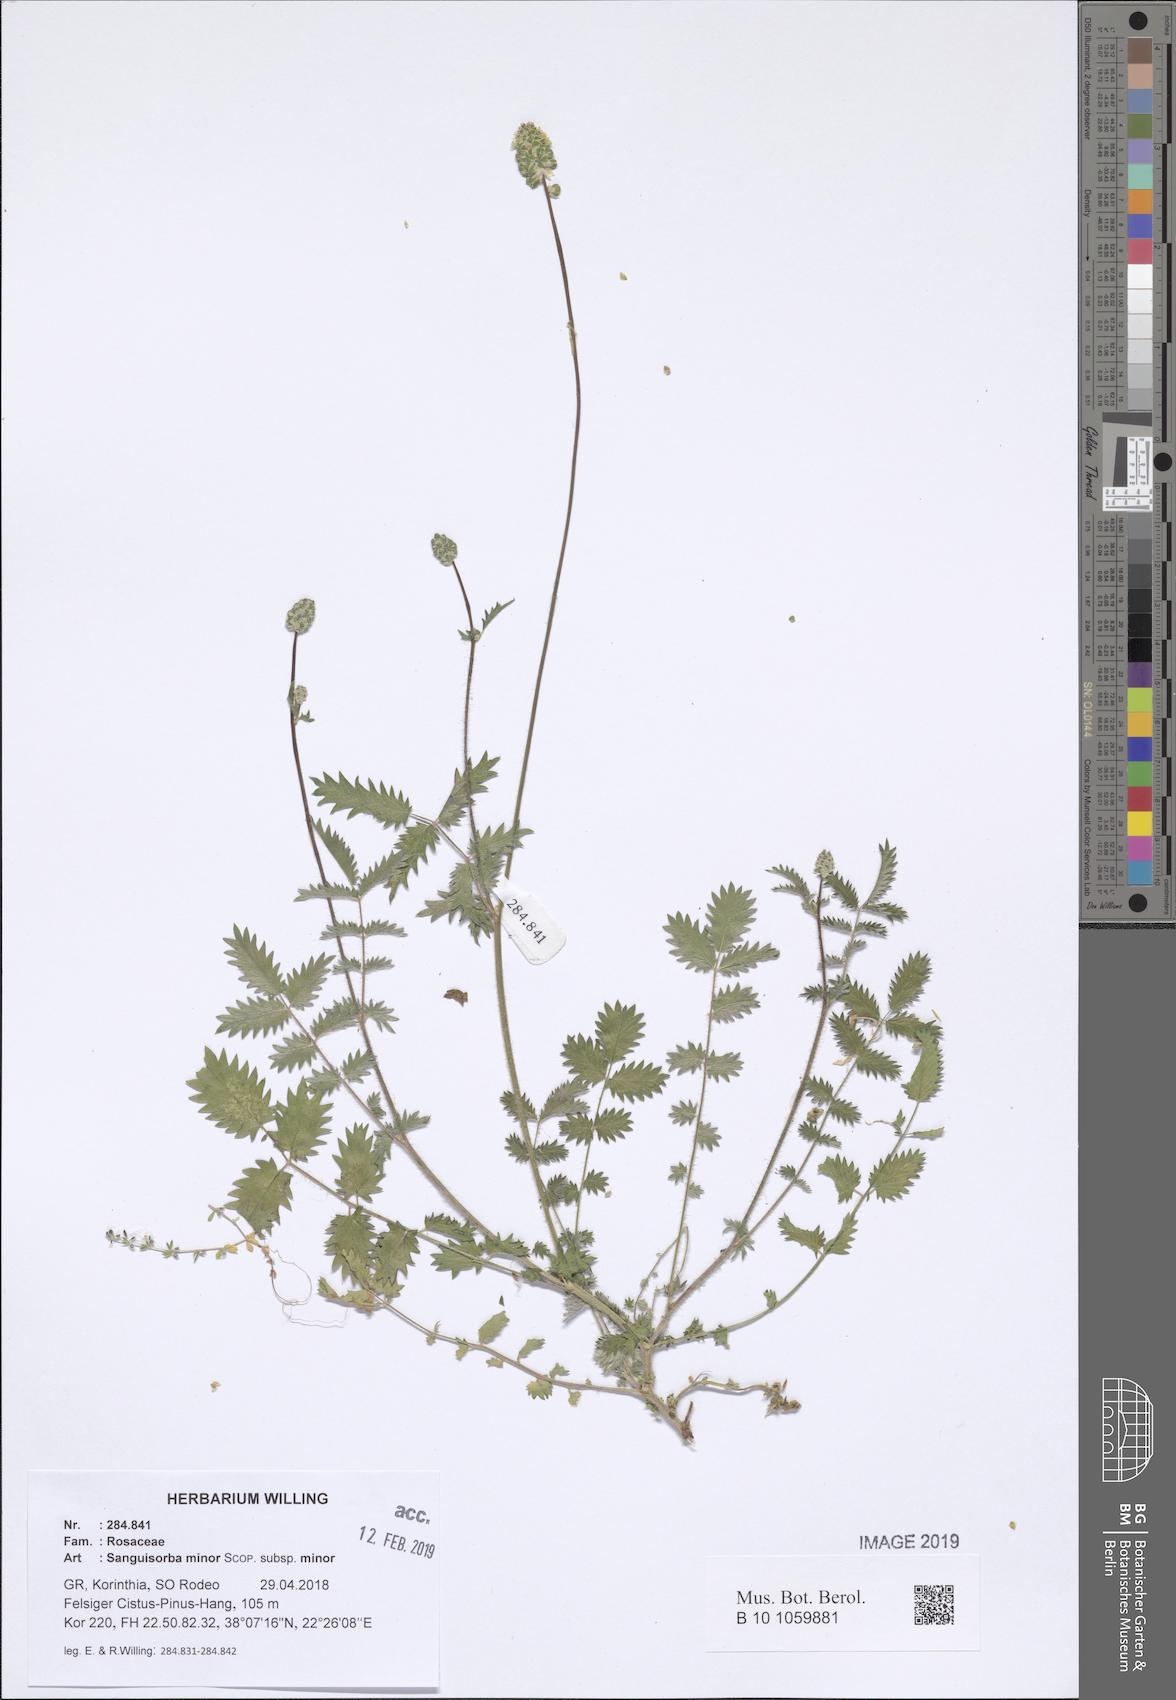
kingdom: Plantae
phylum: Tracheophyta
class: Magnoliopsida
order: Rosales
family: Rosaceae
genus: Poterium
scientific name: Poterium sanguisorba
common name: Salad burnet
